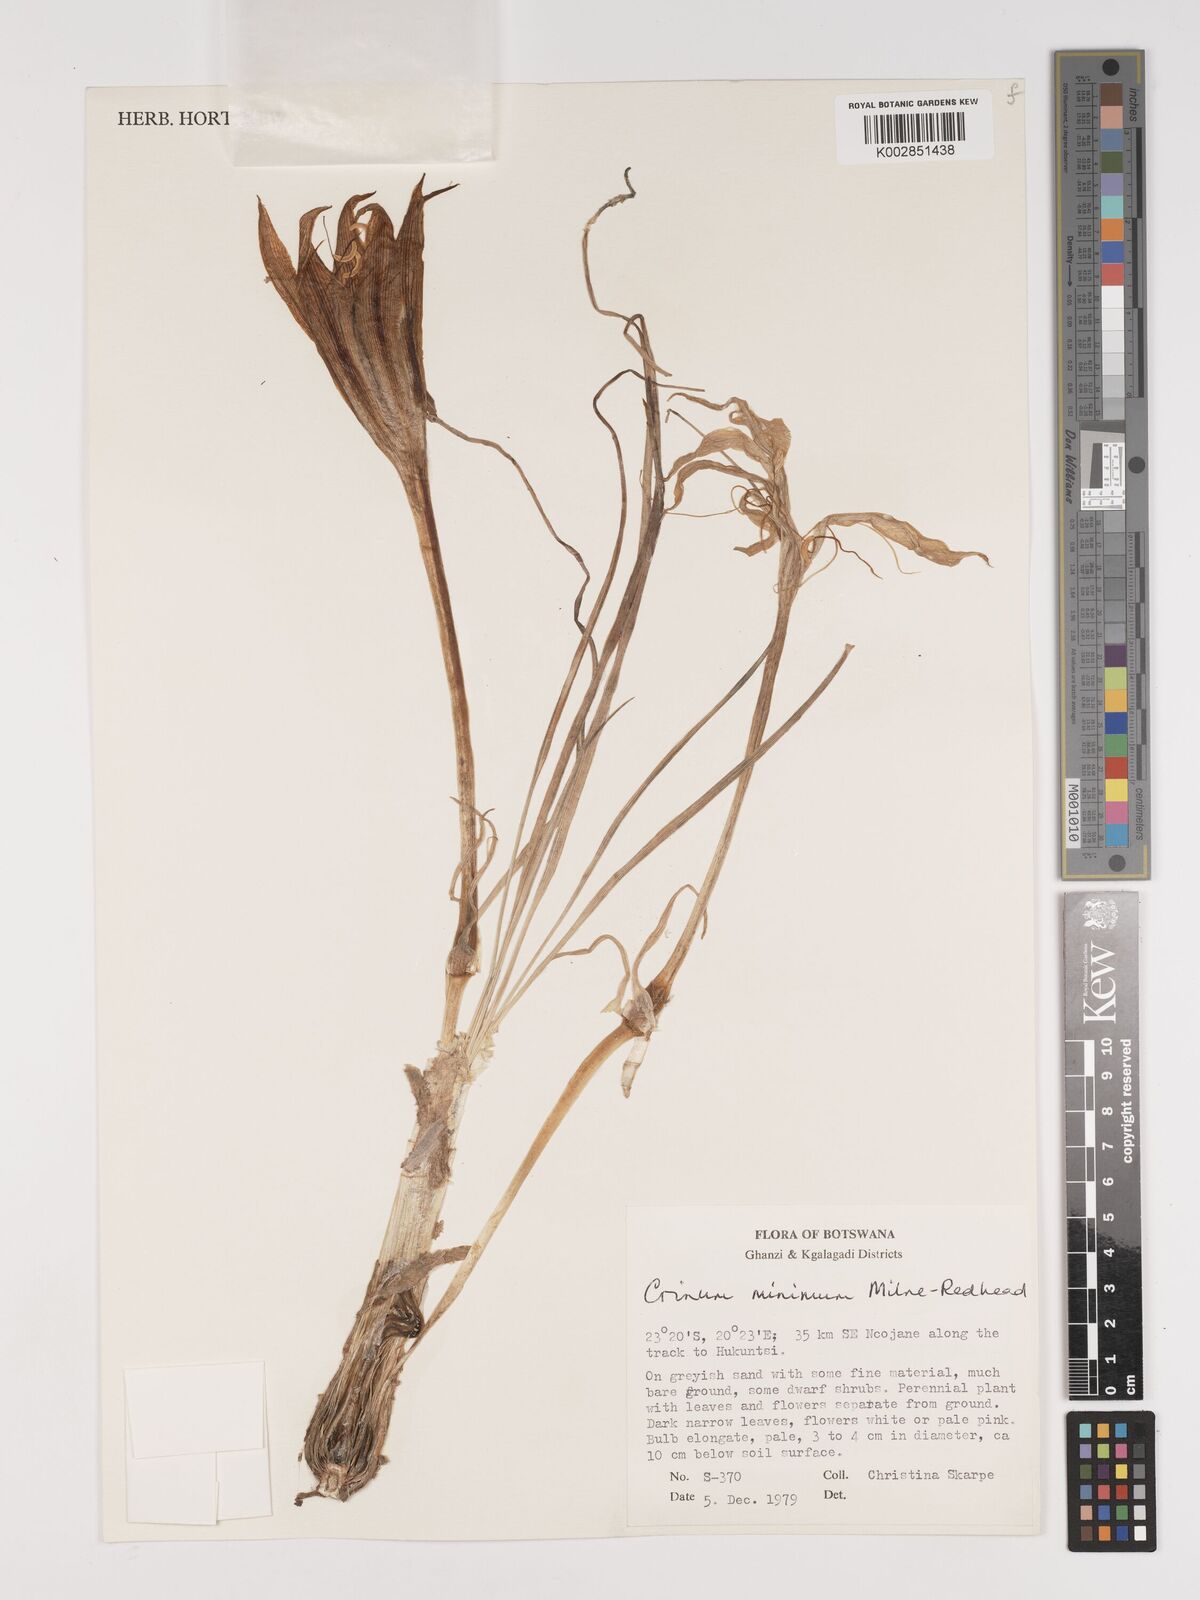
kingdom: Plantae
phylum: Tracheophyta
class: Liliopsida
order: Asparagales
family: Amaryllidaceae
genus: Crinum
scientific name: Crinum walteri
